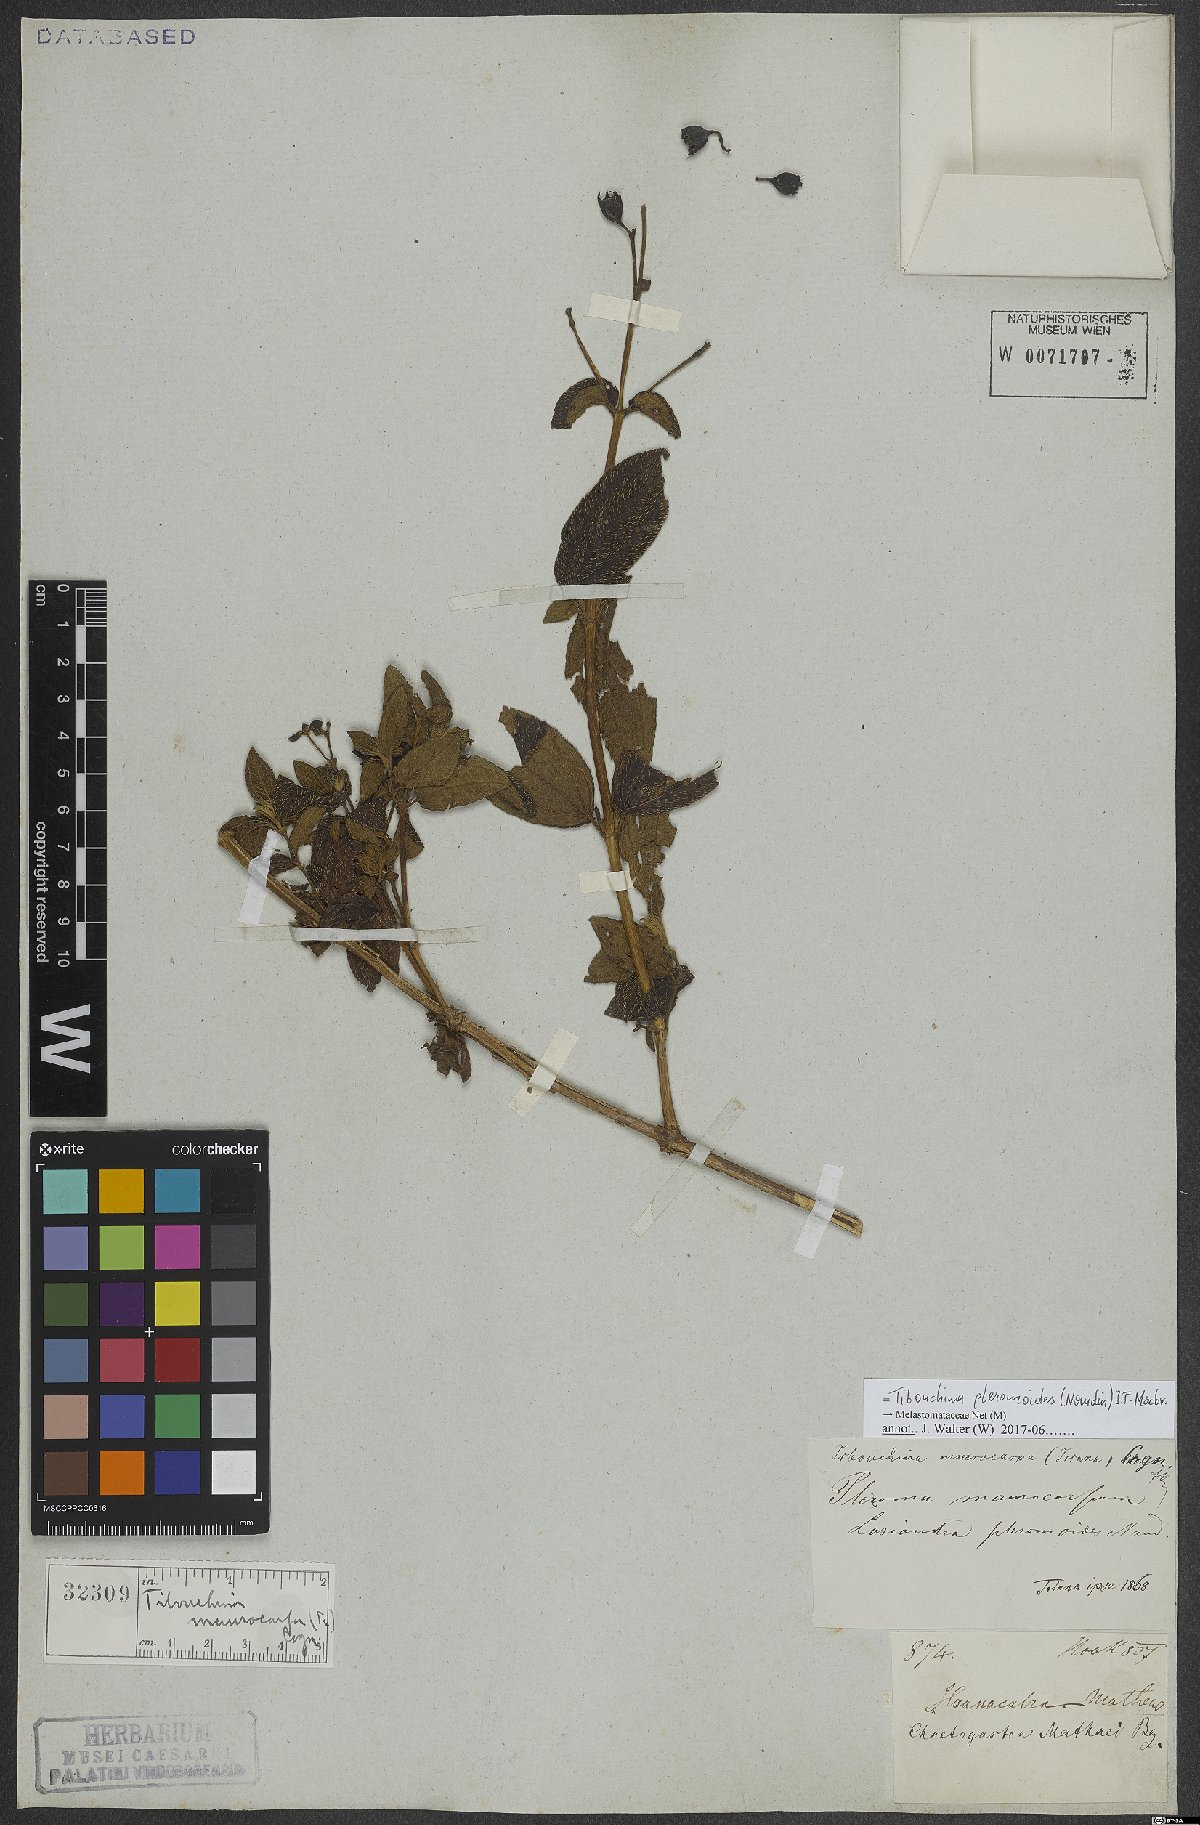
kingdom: Plantae
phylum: Tracheophyta
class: Magnoliopsida
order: Myrtales
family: Melastomataceae
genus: Chaetogastra
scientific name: Chaetogastra pleromoides
